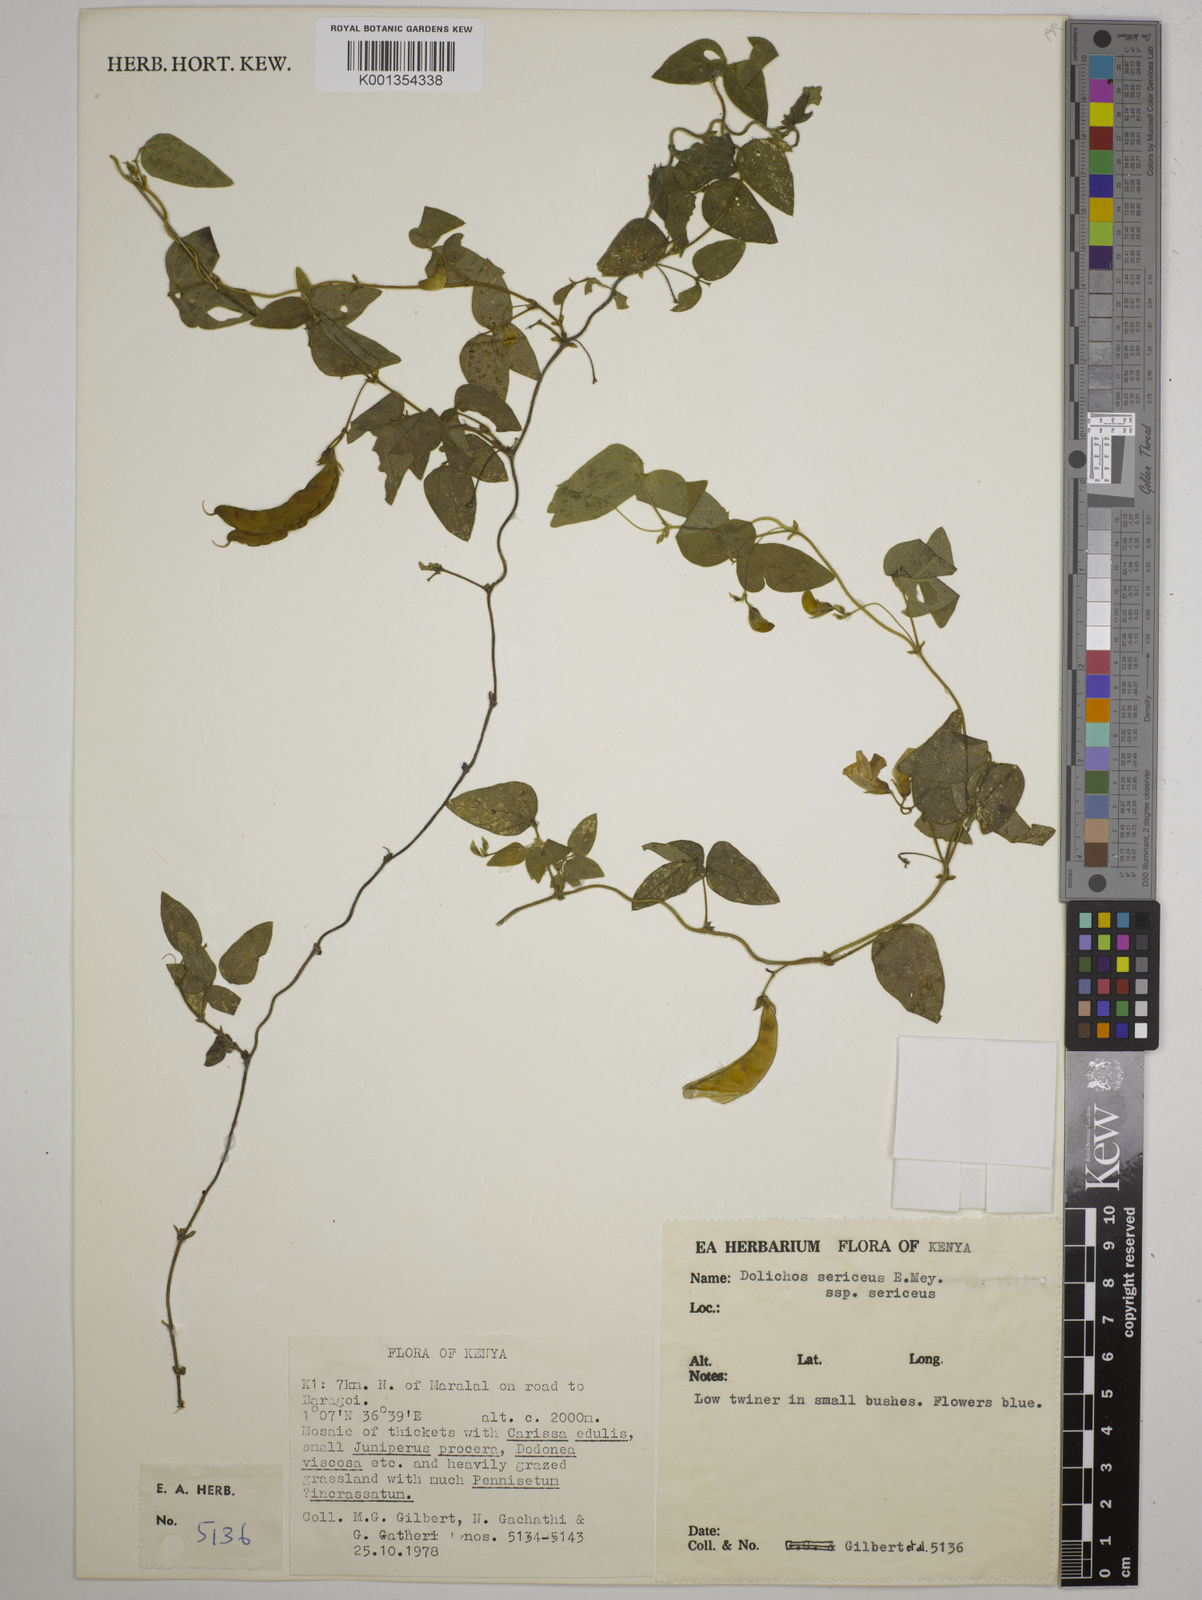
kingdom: Plantae
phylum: Tracheophyta
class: Magnoliopsida
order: Fabales
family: Fabaceae
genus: Dolichos
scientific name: Dolichos sericeus
